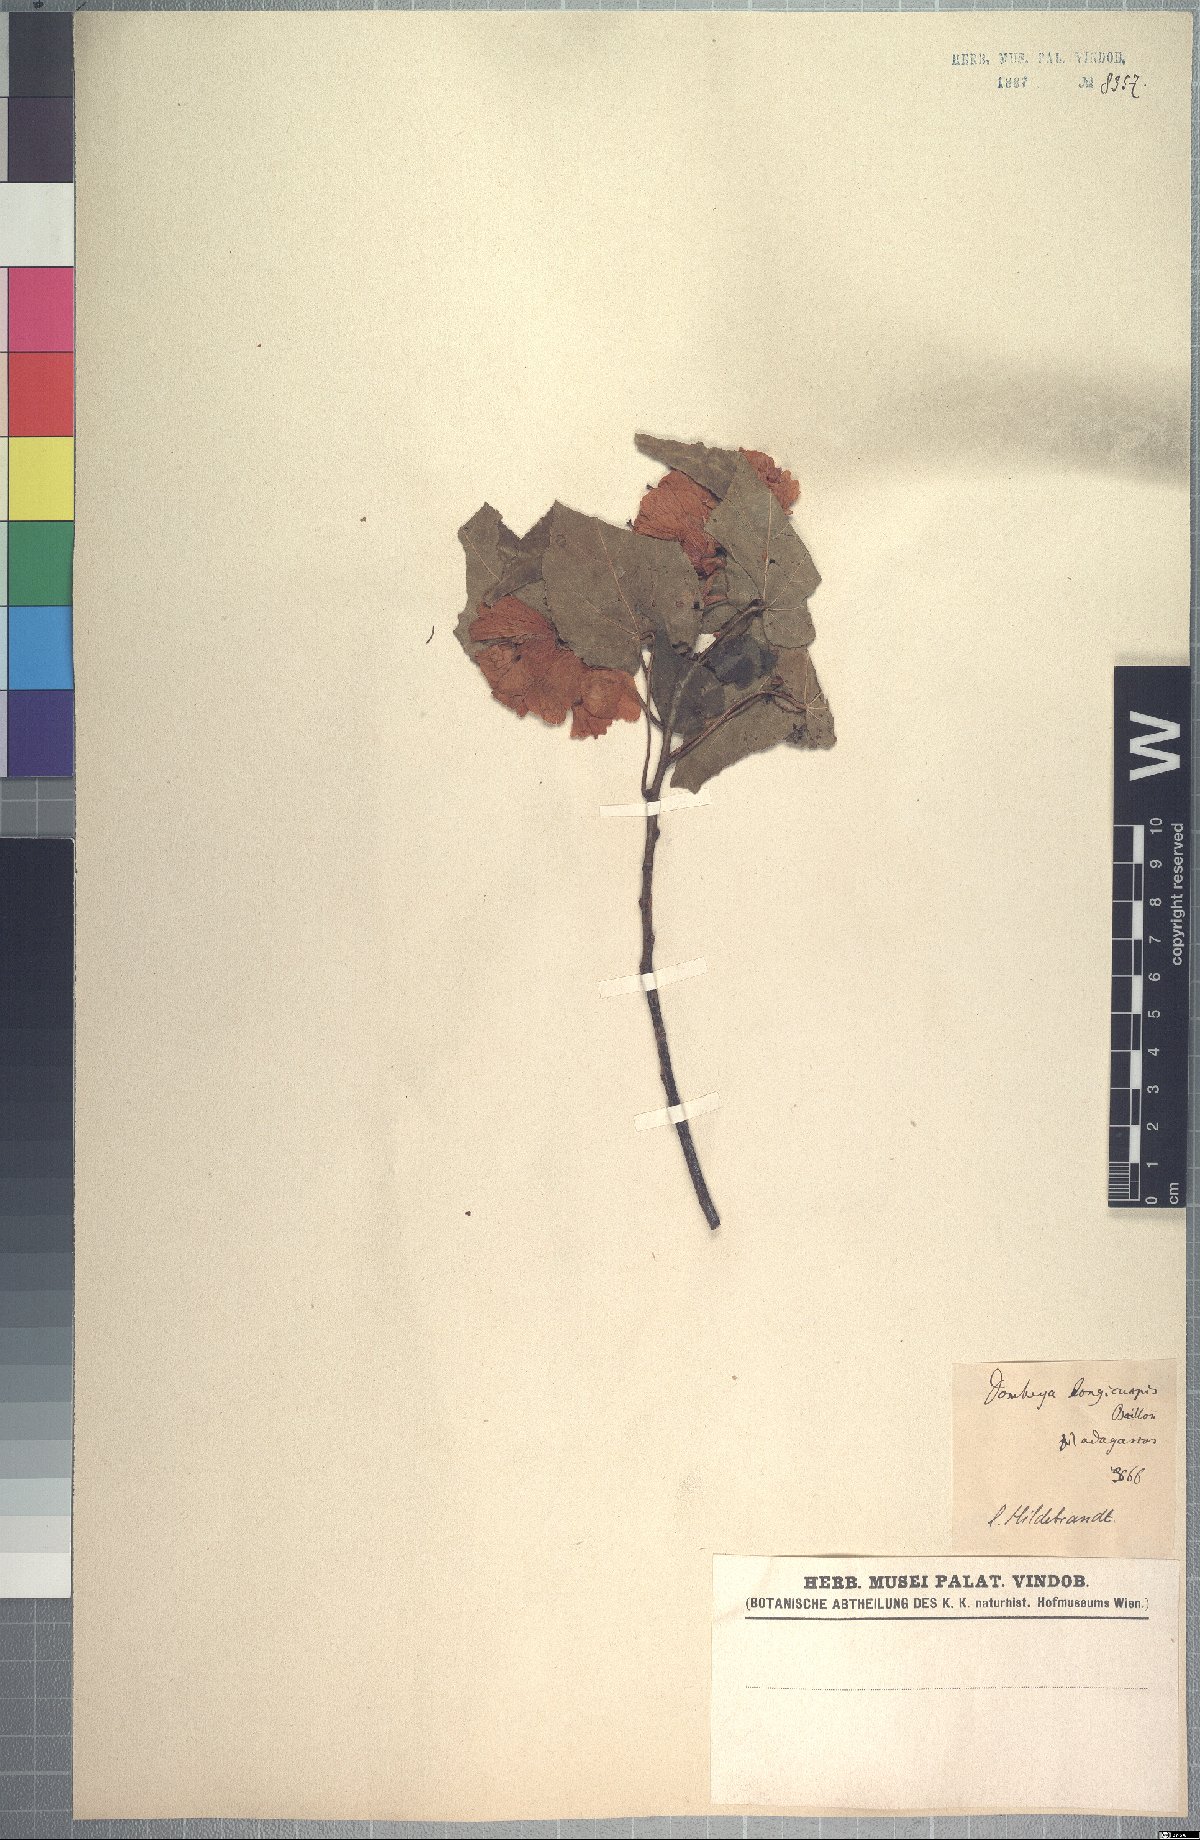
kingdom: Plantae
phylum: Tracheophyta
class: Magnoliopsida
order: Malvales
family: Malvaceae
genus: Dombeya
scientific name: Dombeya longicuspis
